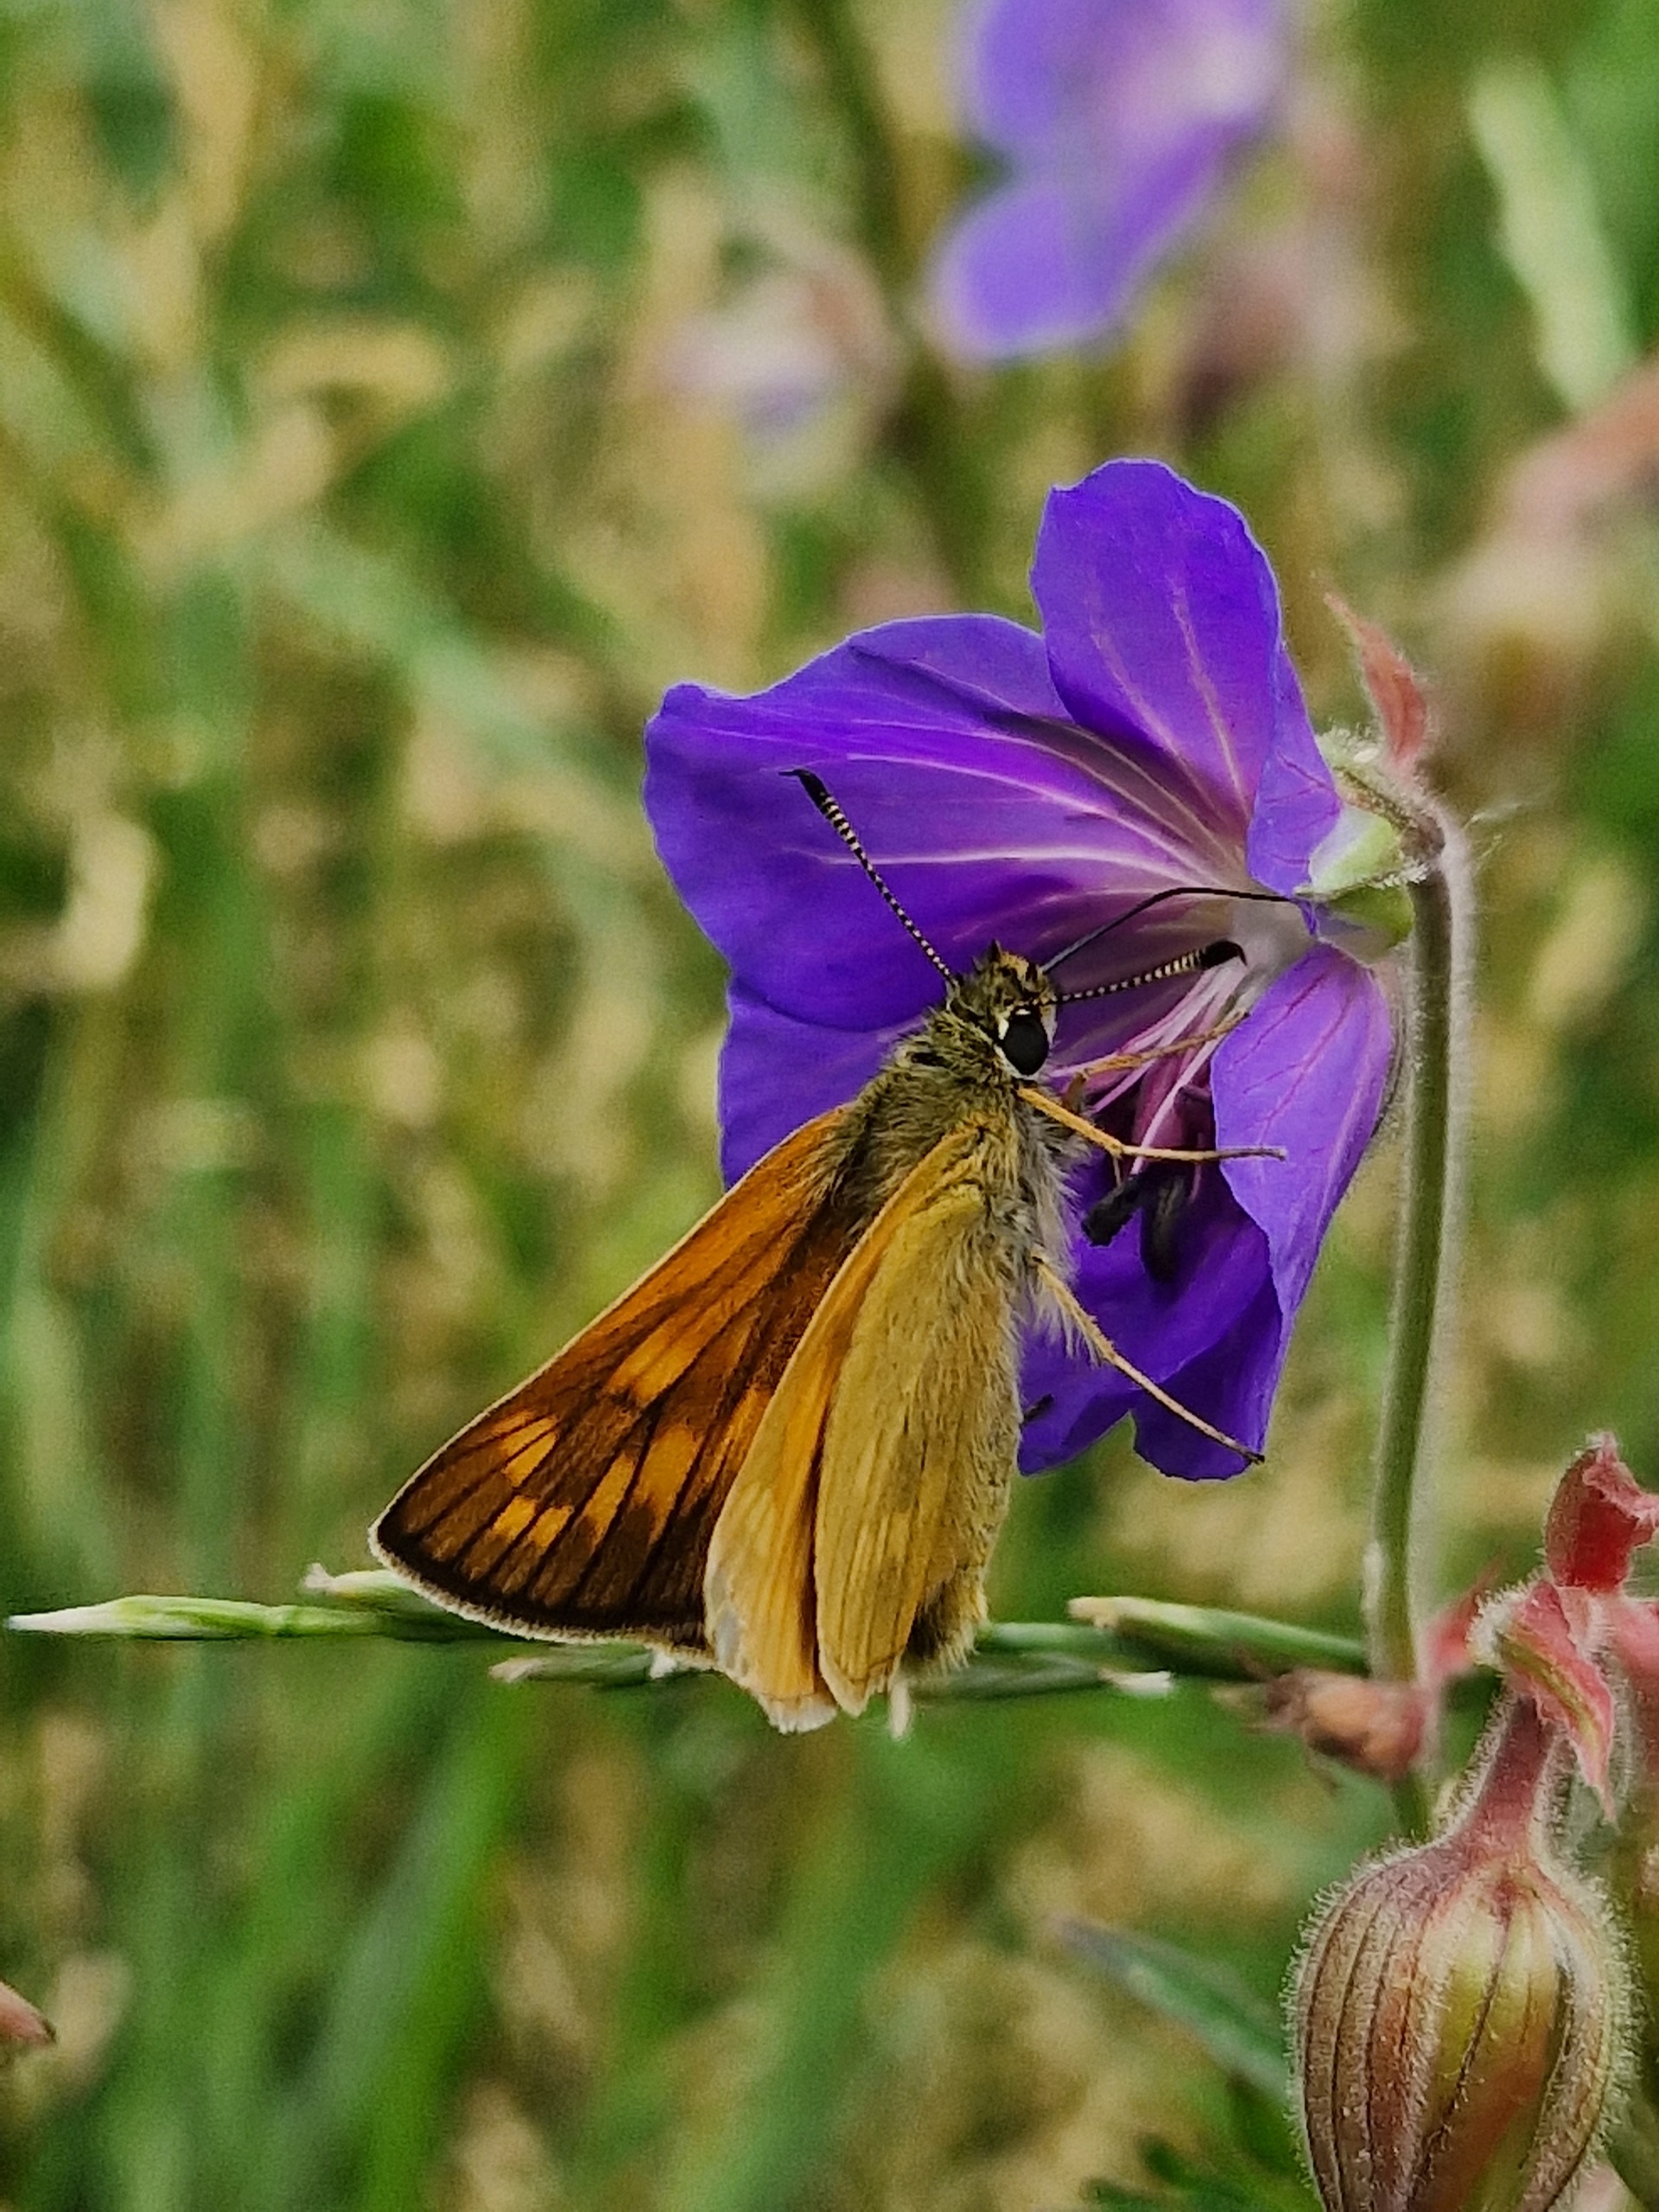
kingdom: Animalia
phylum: Arthropoda
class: Insecta
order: Lepidoptera
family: Hesperiidae
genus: Ochlodes
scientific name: Ochlodes venata
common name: Stor bredpande
